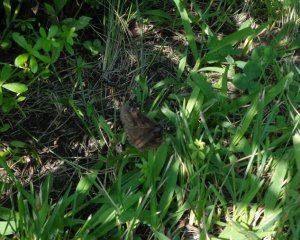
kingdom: Animalia
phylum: Arthropoda
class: Insecta
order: Lepidoptera
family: Hesperiidae
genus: Gesta
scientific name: Gesta
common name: Wild Indigo Duskywing
